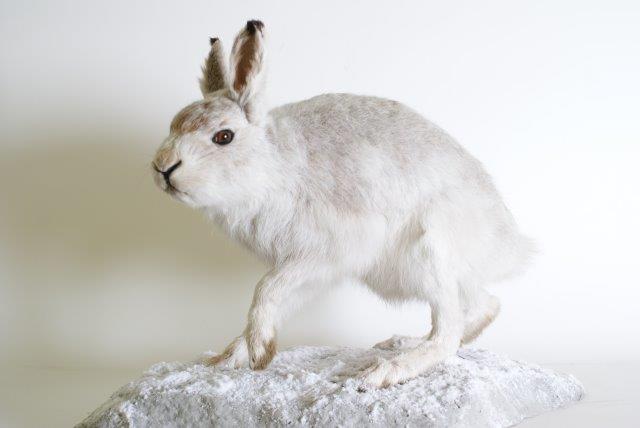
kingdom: Animalia
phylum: Chordata
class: Mammalia
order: Lagomorpha
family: Leporidae
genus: Lepus
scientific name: Lepus timidus
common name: Mountain Hare
